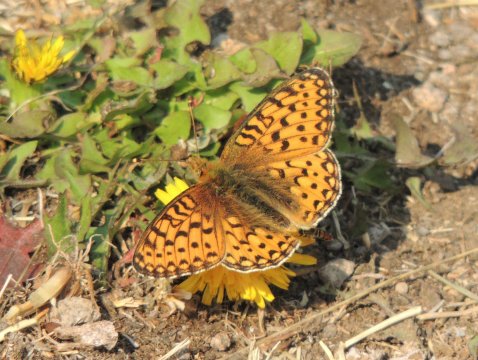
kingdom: Animalia
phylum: Arthropoda
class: Insecta
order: Lepidoptera
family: Nymphalidae
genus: Speyeria
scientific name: Speyeria mormonia
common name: Mormon Fritillary
